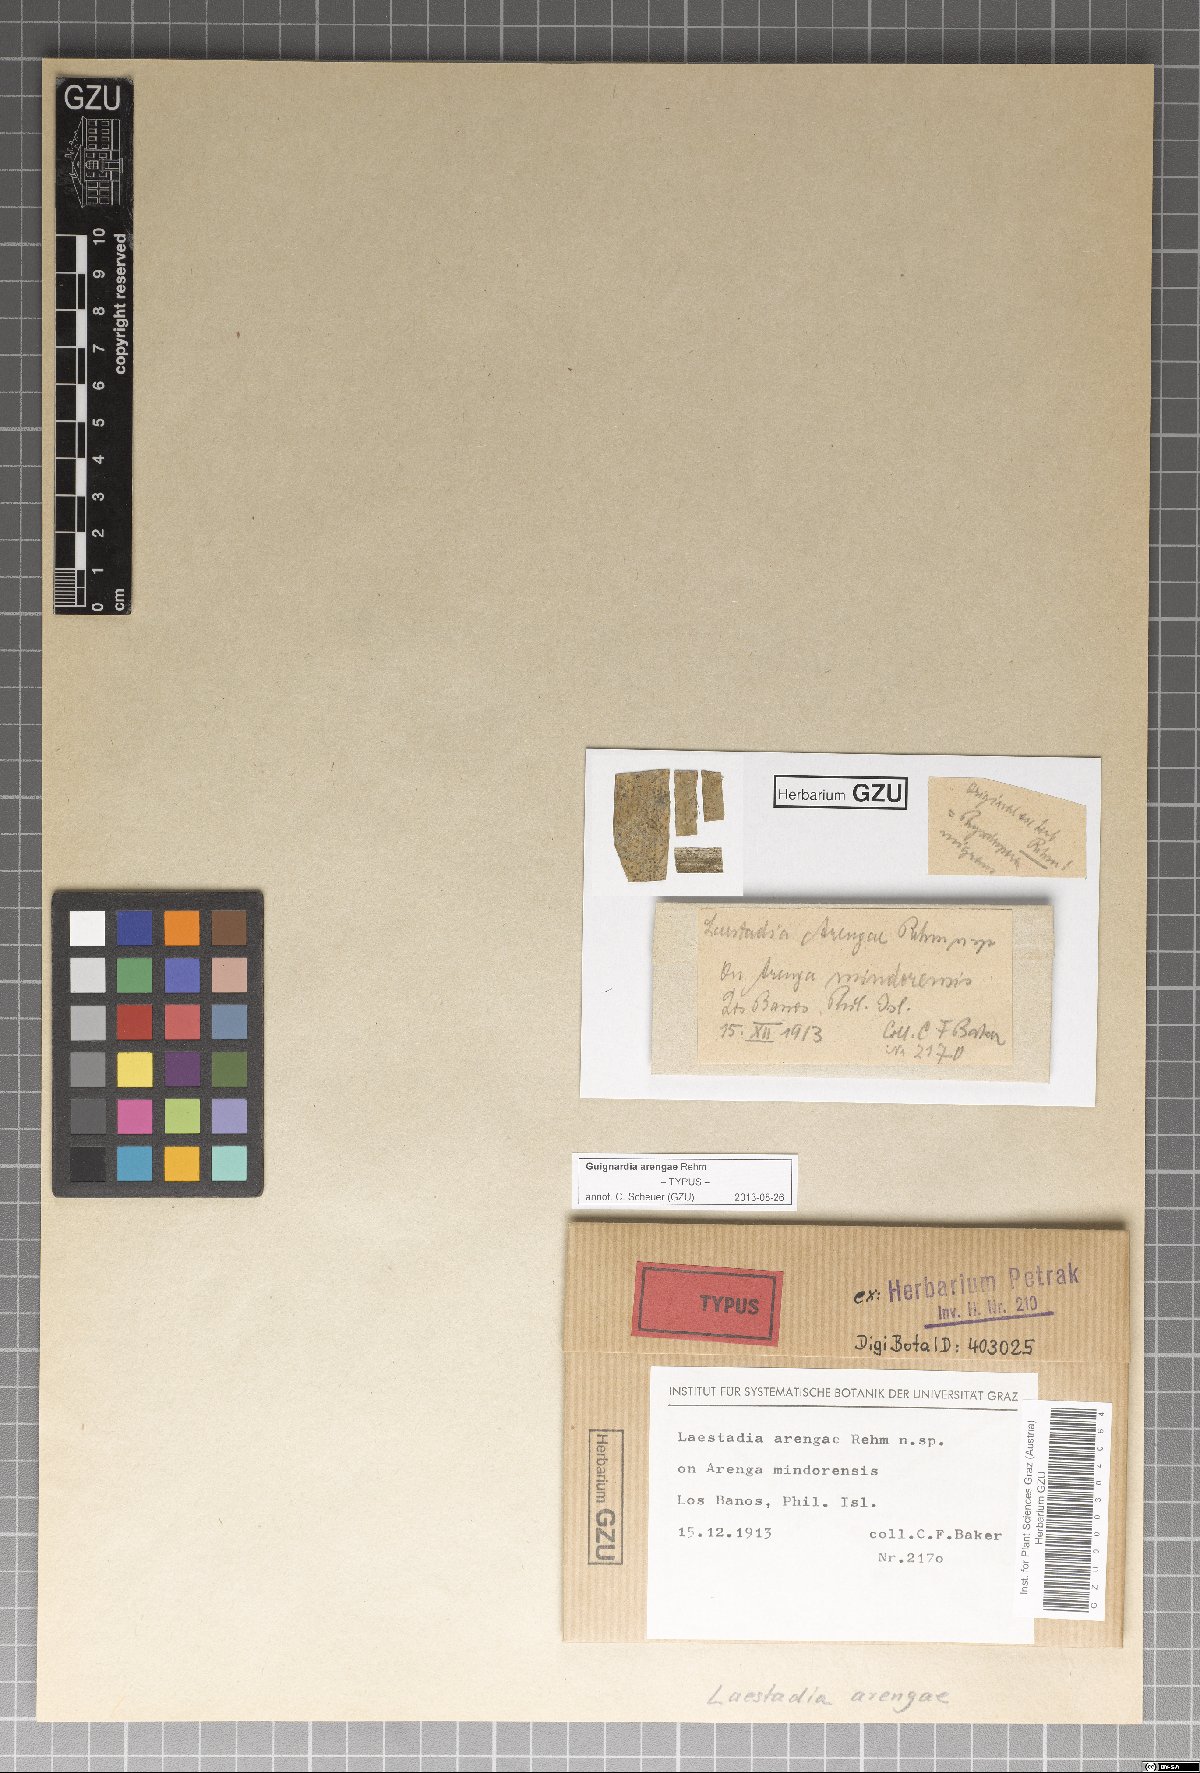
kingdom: Fungi
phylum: Ascomycota
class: Dothideomycetes
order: Botryosphaeriales
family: Botryosphaeriaceae
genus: Melanops
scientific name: Melanops arengae
